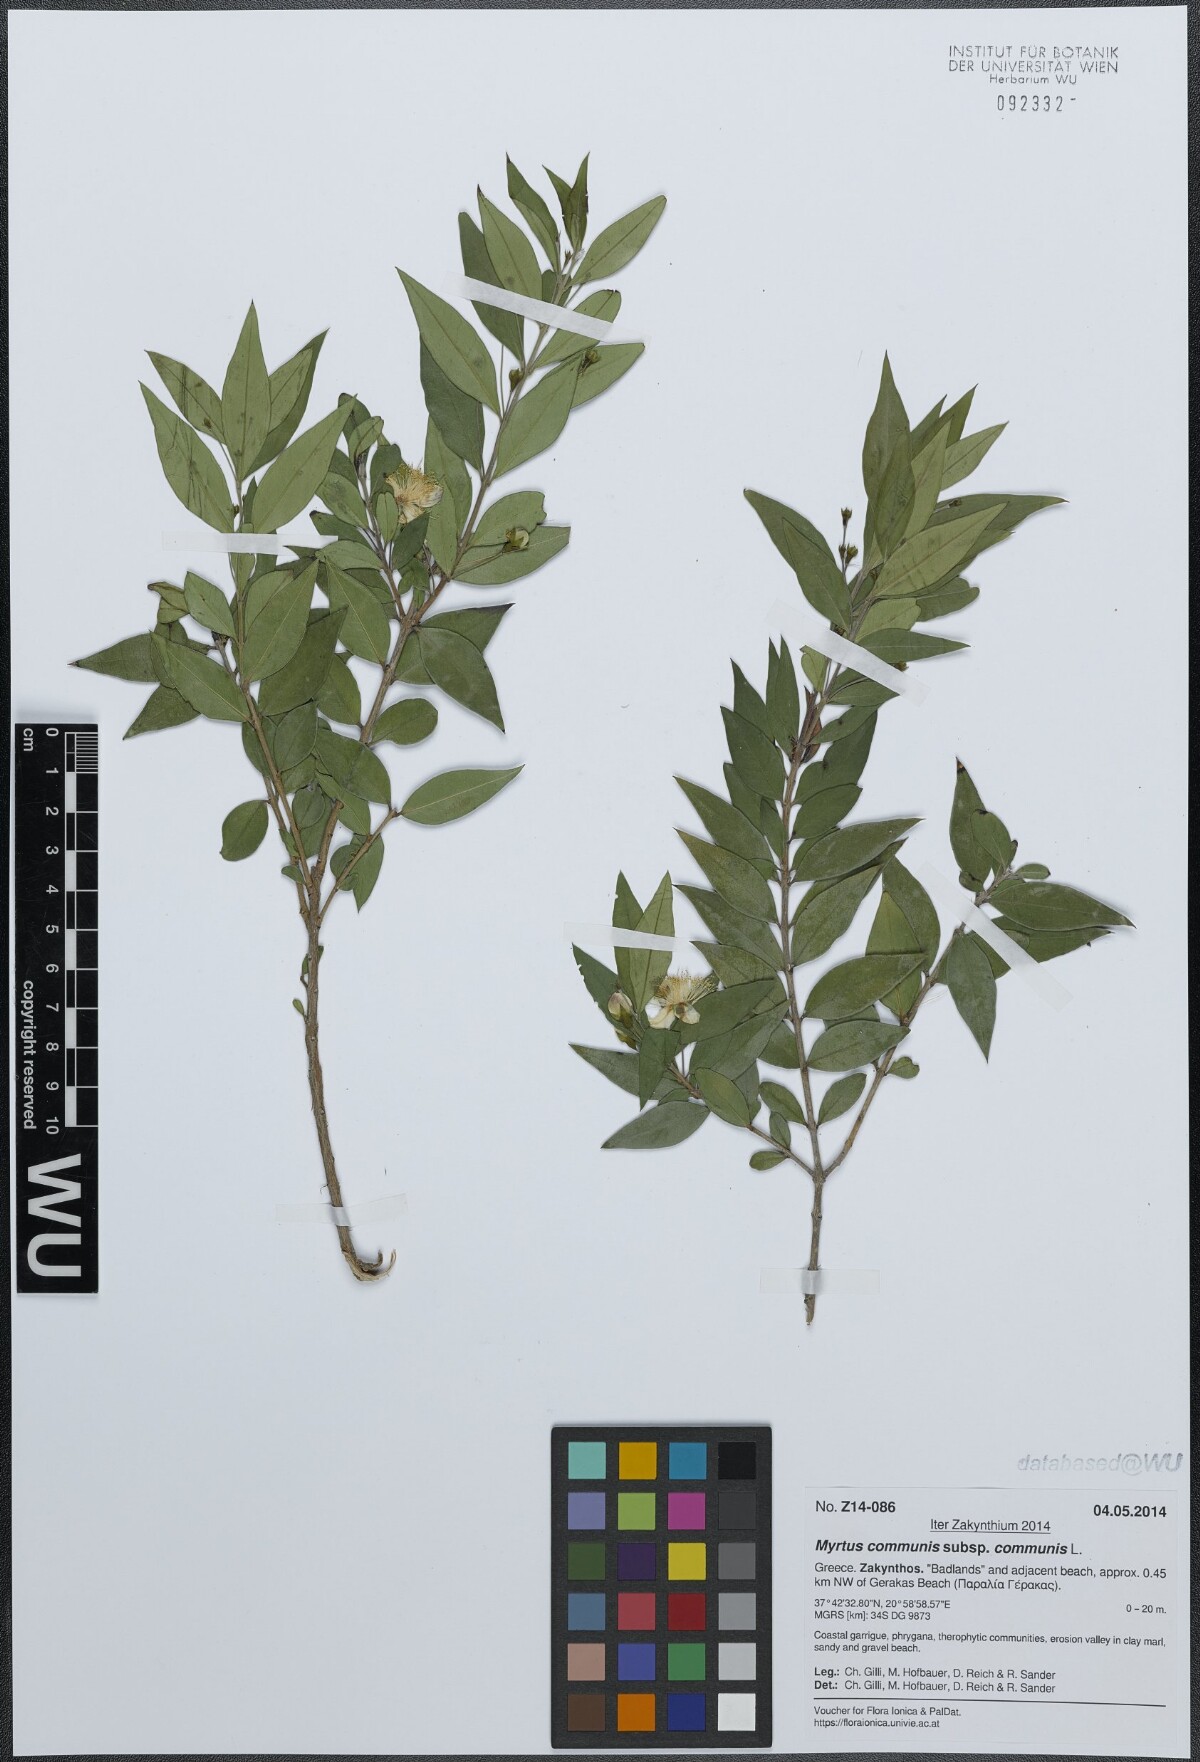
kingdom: Plantae
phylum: Tracheophyta
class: Magnoliopsida
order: Myrtales
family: Myrtaceae
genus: Myrtus
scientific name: Myrtus communis
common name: Myrtle
